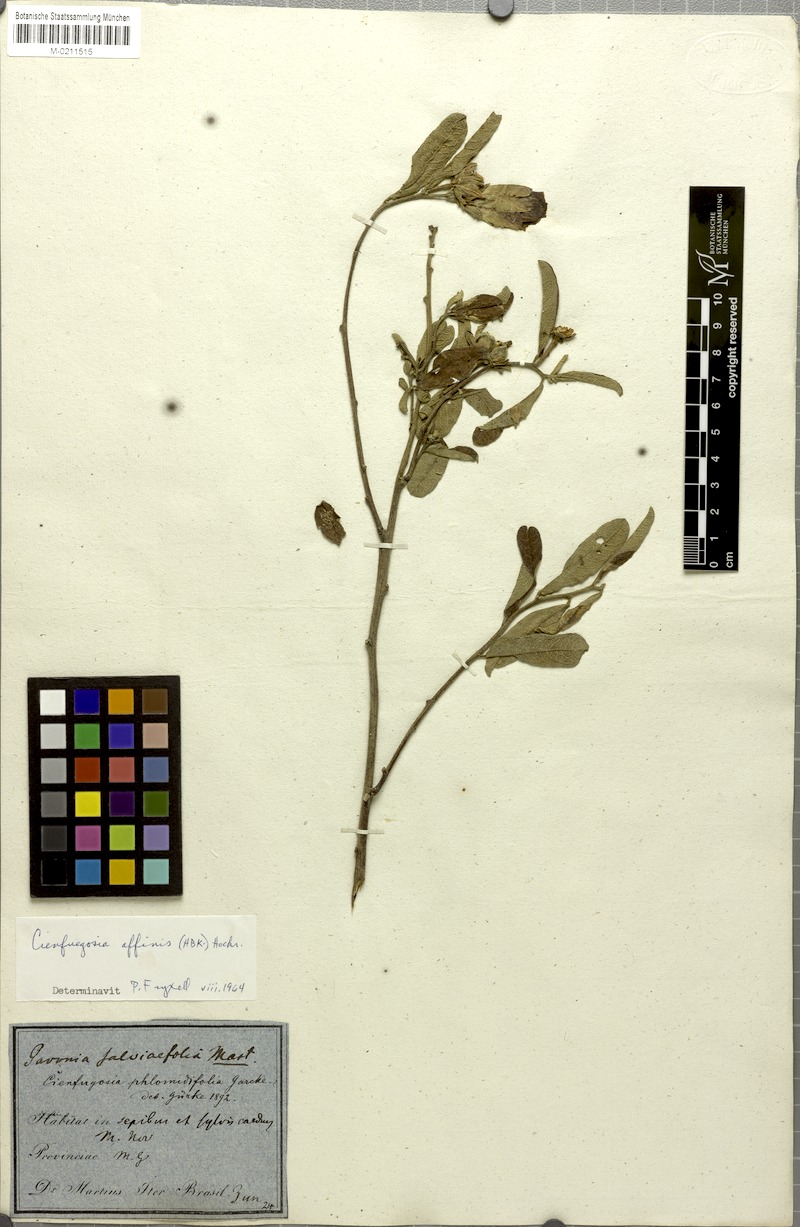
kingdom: Plantae
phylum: Tracheophyta
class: Magnoliopsida
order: Malvales
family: Malvaceae
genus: Cienfuegosia
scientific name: Cienfuegosia affinis
